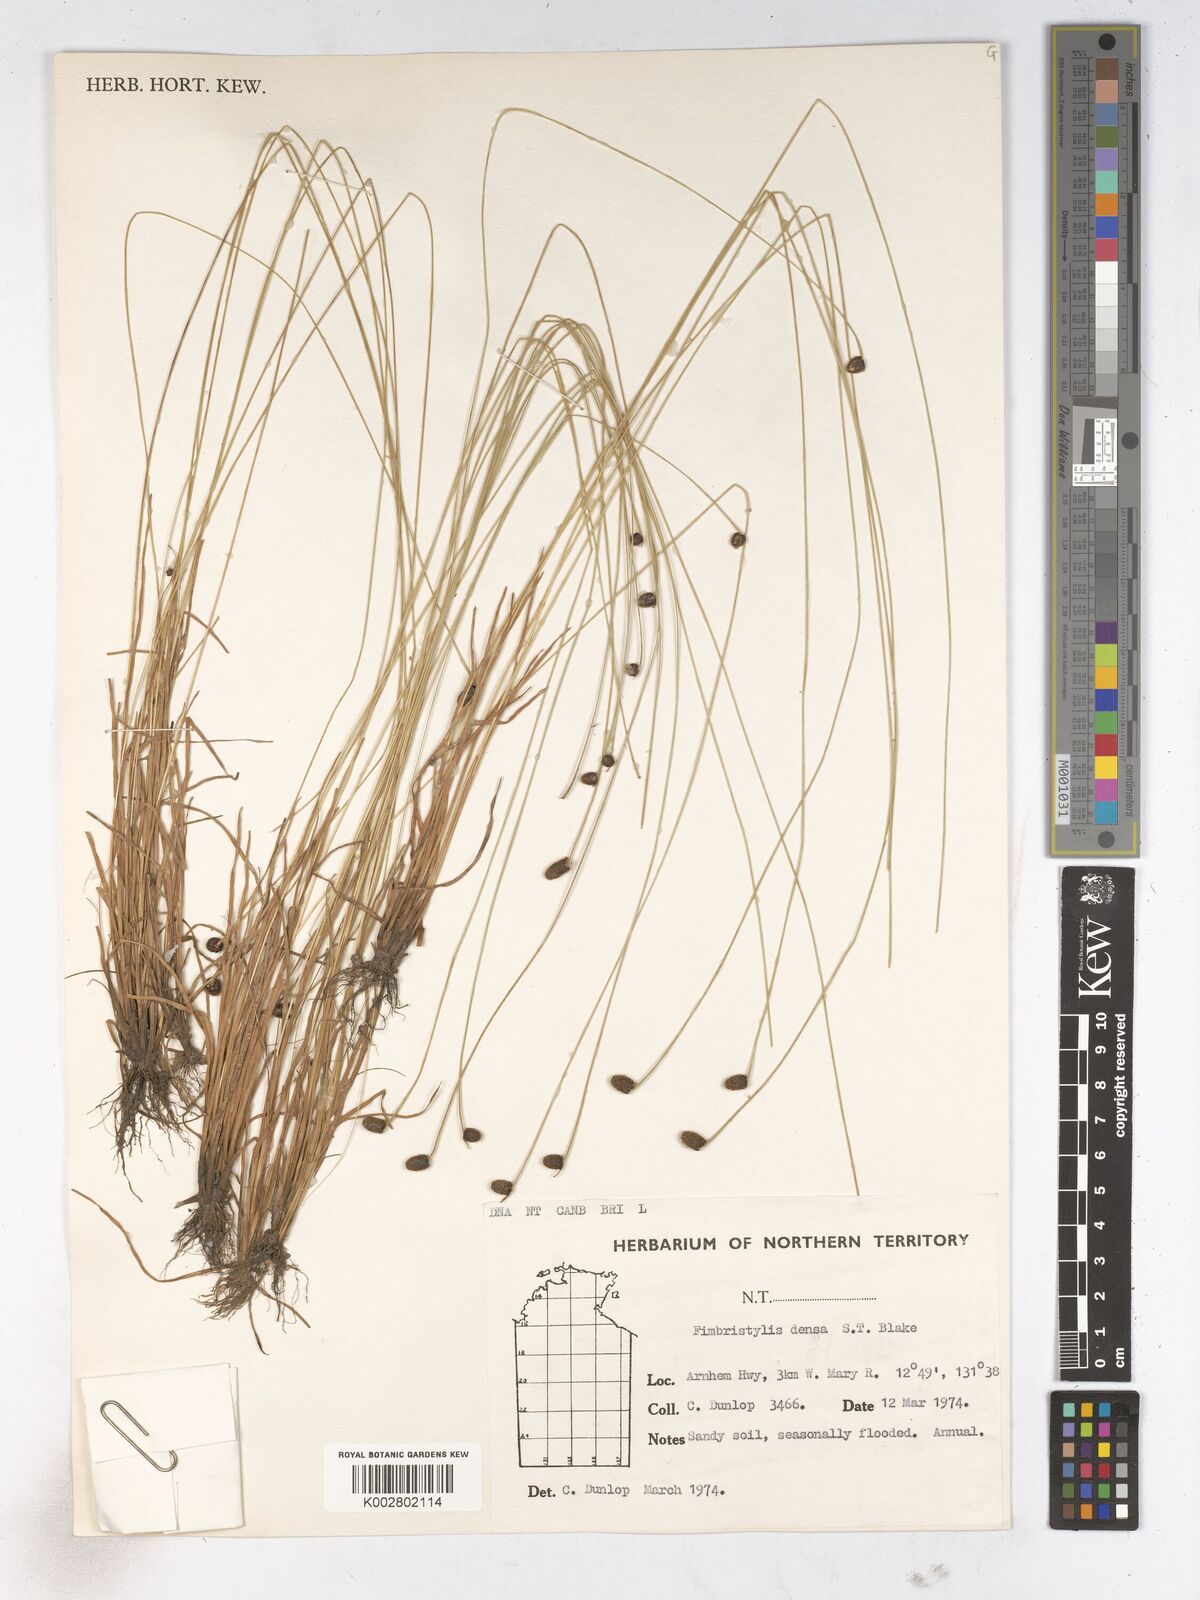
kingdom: Plantae
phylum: Tracheophyta
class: Liliopsida
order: Poales
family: Cyperaceae
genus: Fimbristylis
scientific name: Fimbristylis densa
